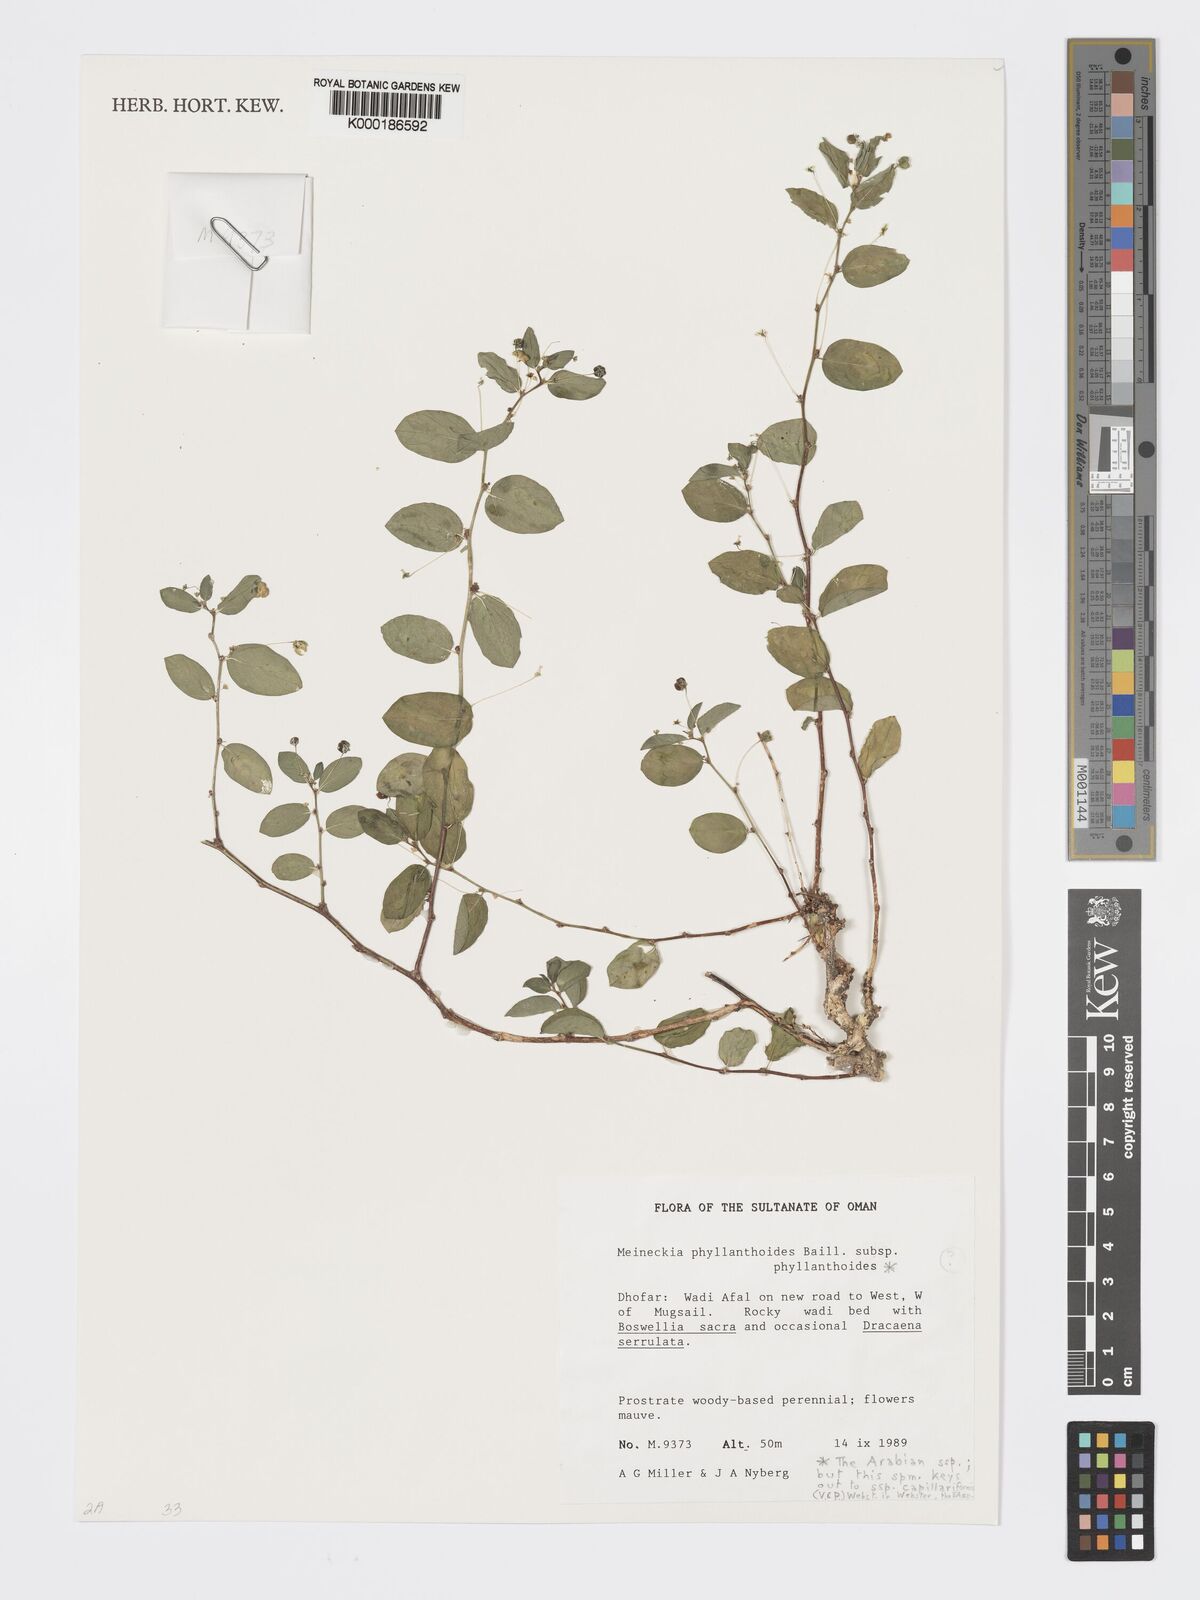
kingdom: Plantae
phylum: Tracheophyta
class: Magnoliopsida
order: Malpighiales
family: Phyllanthaceae
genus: Meineckia
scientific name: Meineckia phyllanthoides
